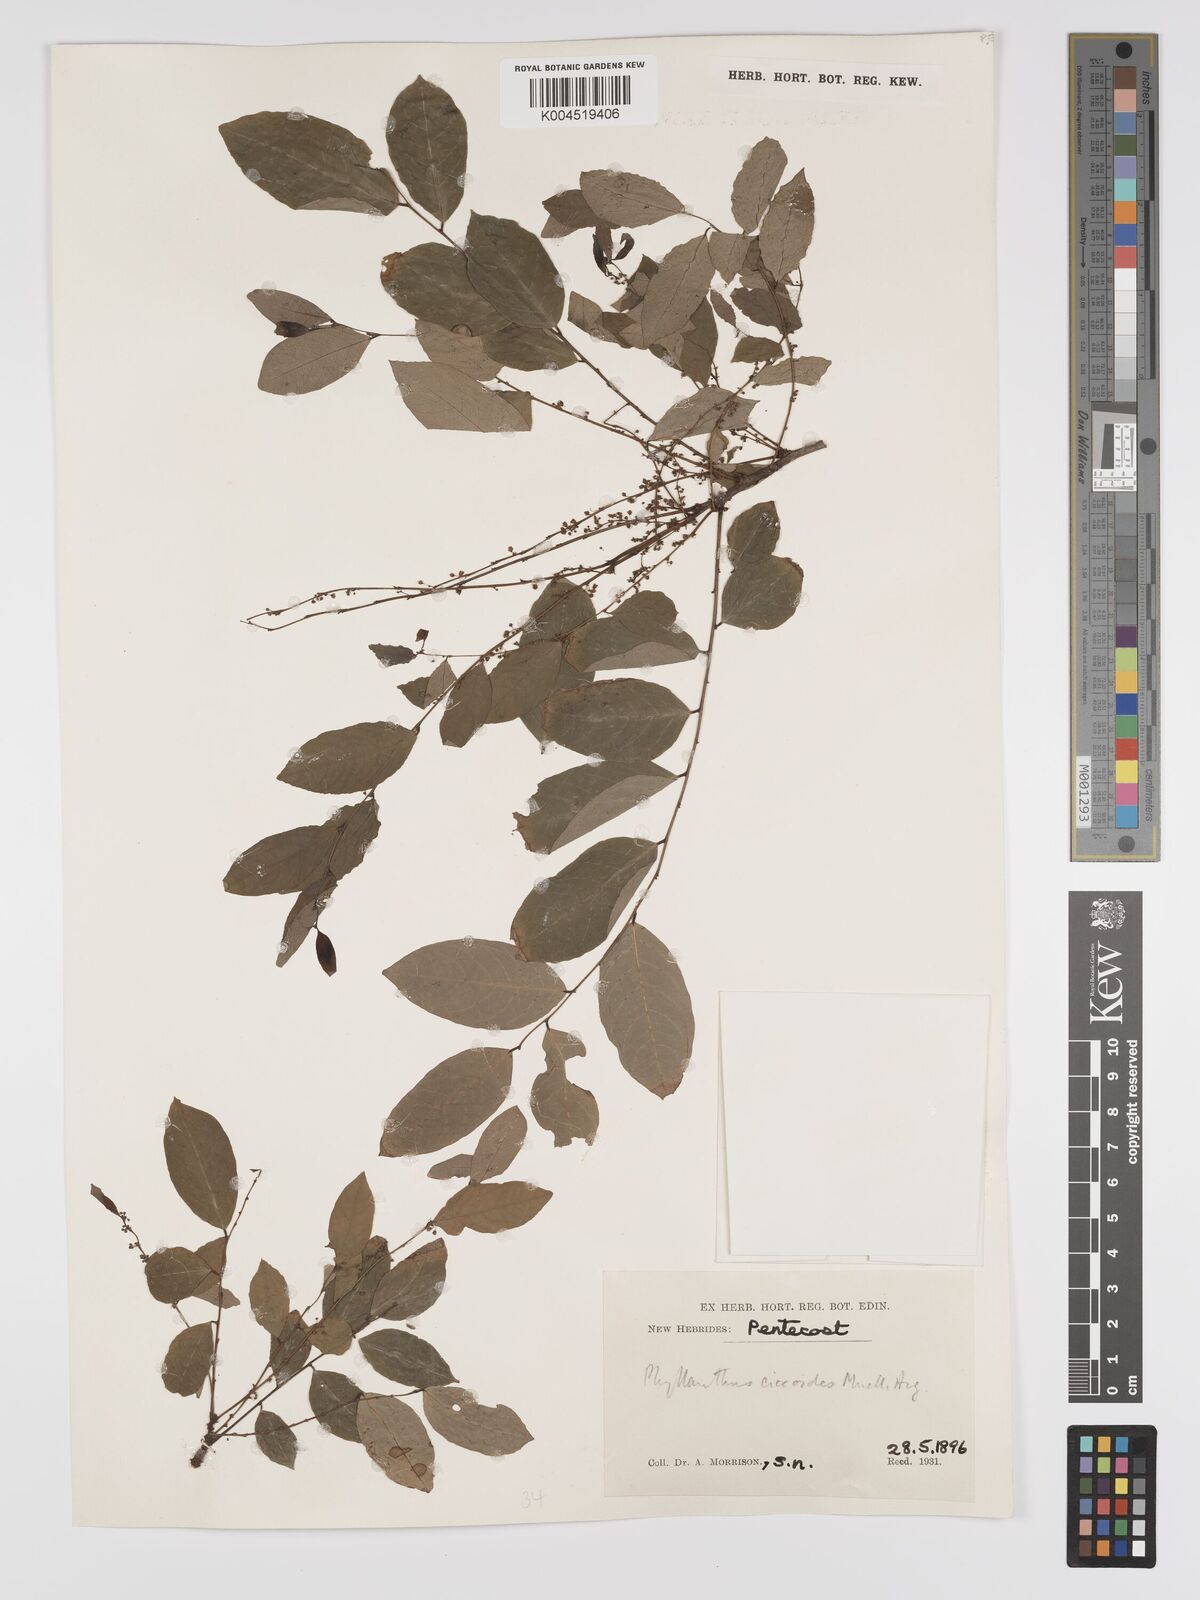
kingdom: Plantae
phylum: Tracheophyta
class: Magnoliopsida
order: Malpighiales
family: Phyllanthaceae
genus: Phyllanthus
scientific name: Phyllanthus ciccoides
